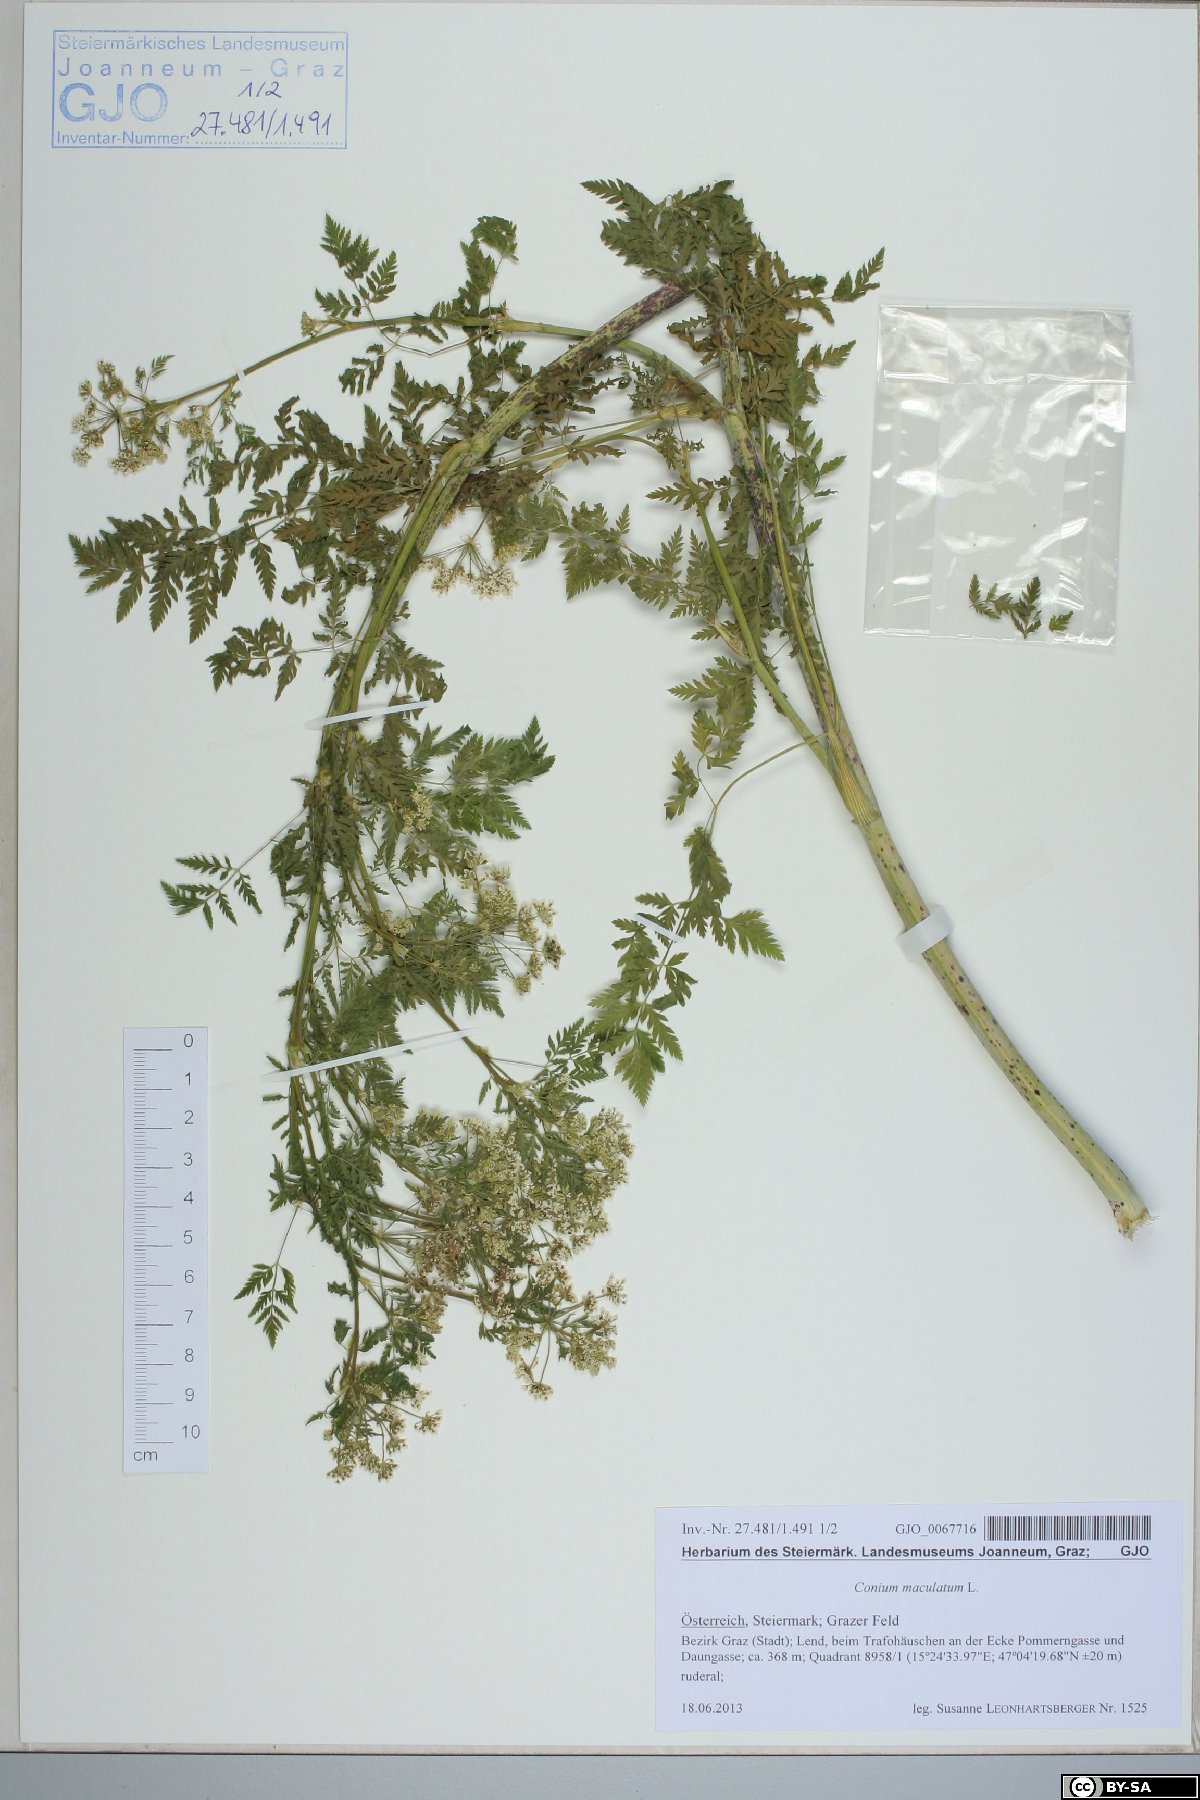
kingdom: Plantae
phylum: Tracheophyta
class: Magnoliopsida
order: Apiales
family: Apiaceae
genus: Conium
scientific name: Conium maculatum
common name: Hemlock
